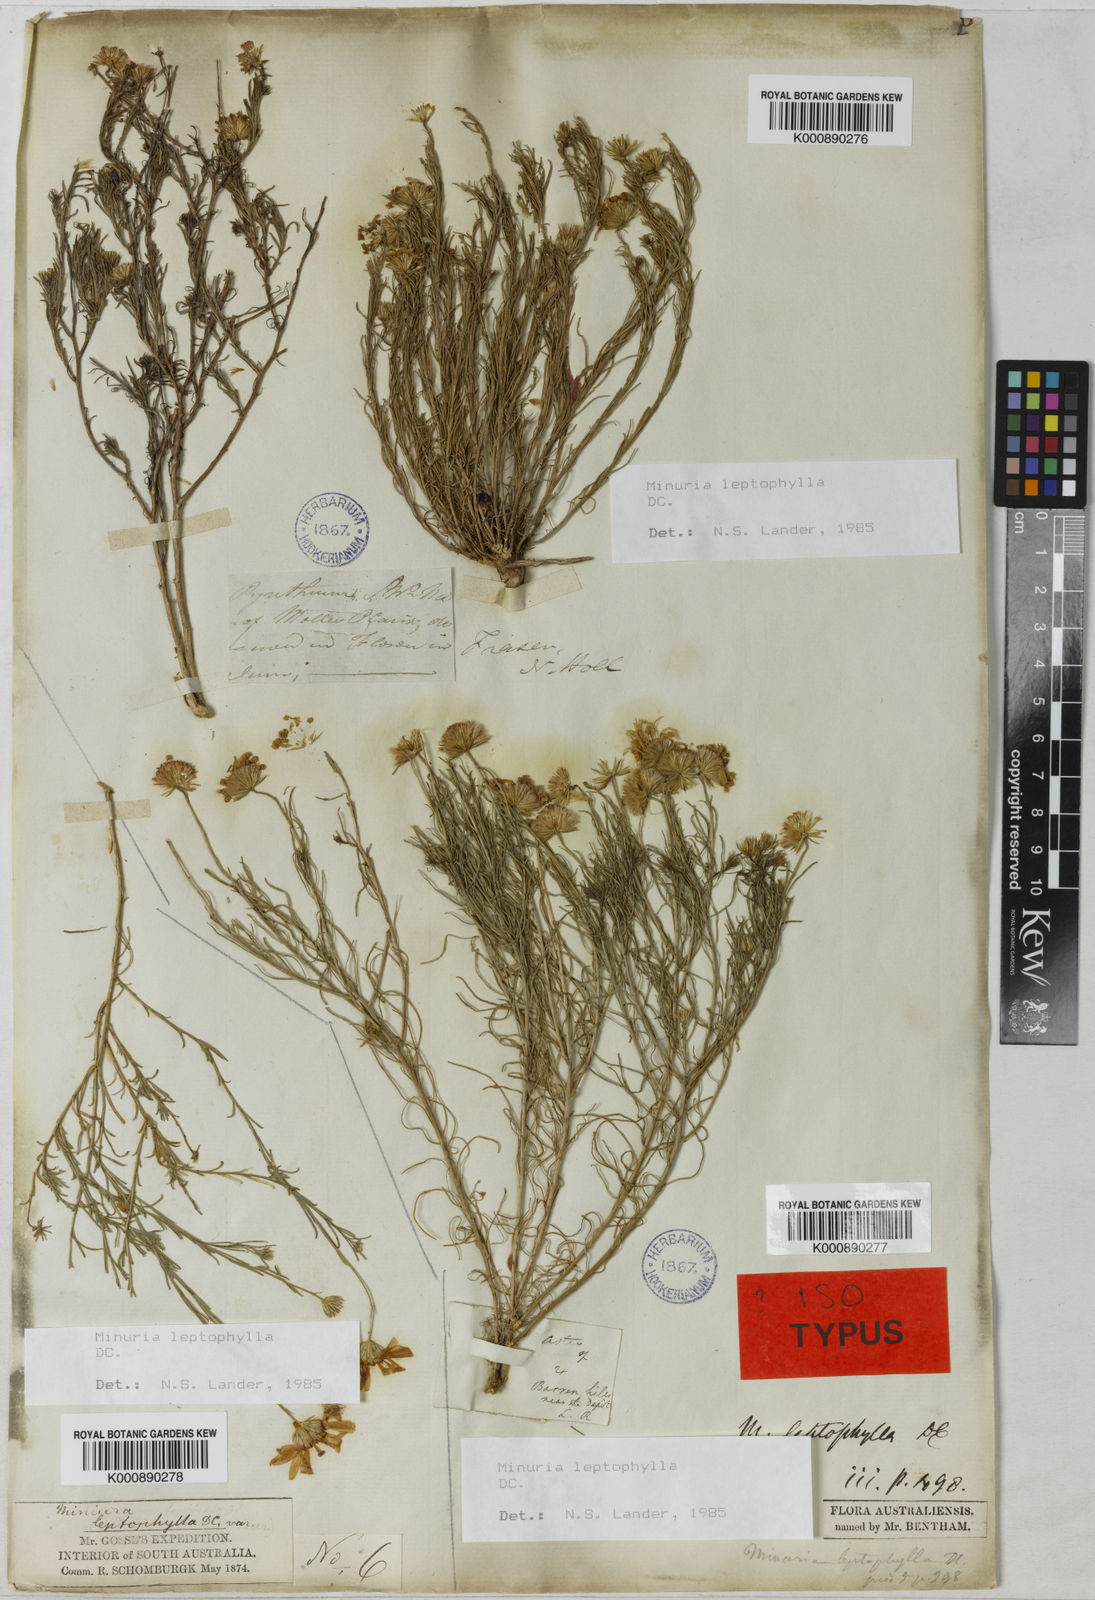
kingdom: Plantae
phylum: Tracheophyta
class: Magnoliopsida
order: Asterales
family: Asteraceae
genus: Minuria
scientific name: Minuria leptophylla
